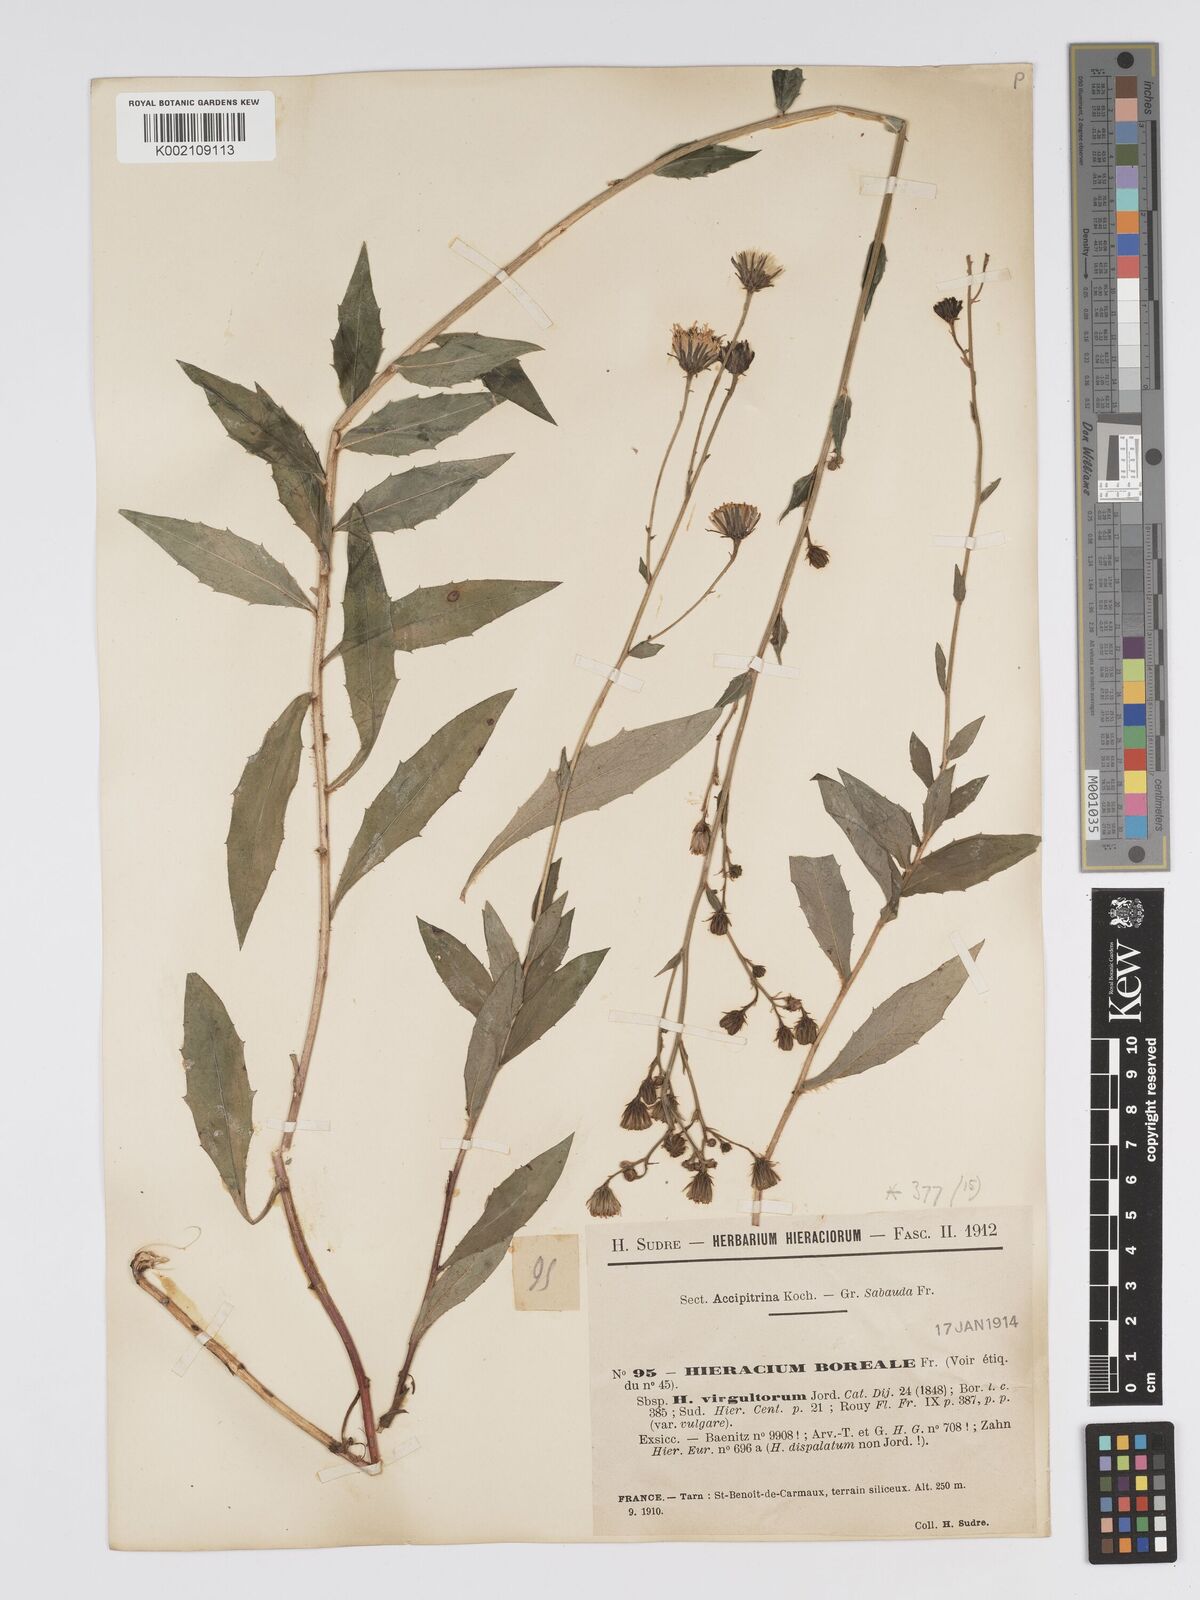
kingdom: Plantae
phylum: Tracheophyta
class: Magnoliopsida
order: Asterales
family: Asteraceae
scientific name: Asteraceae
